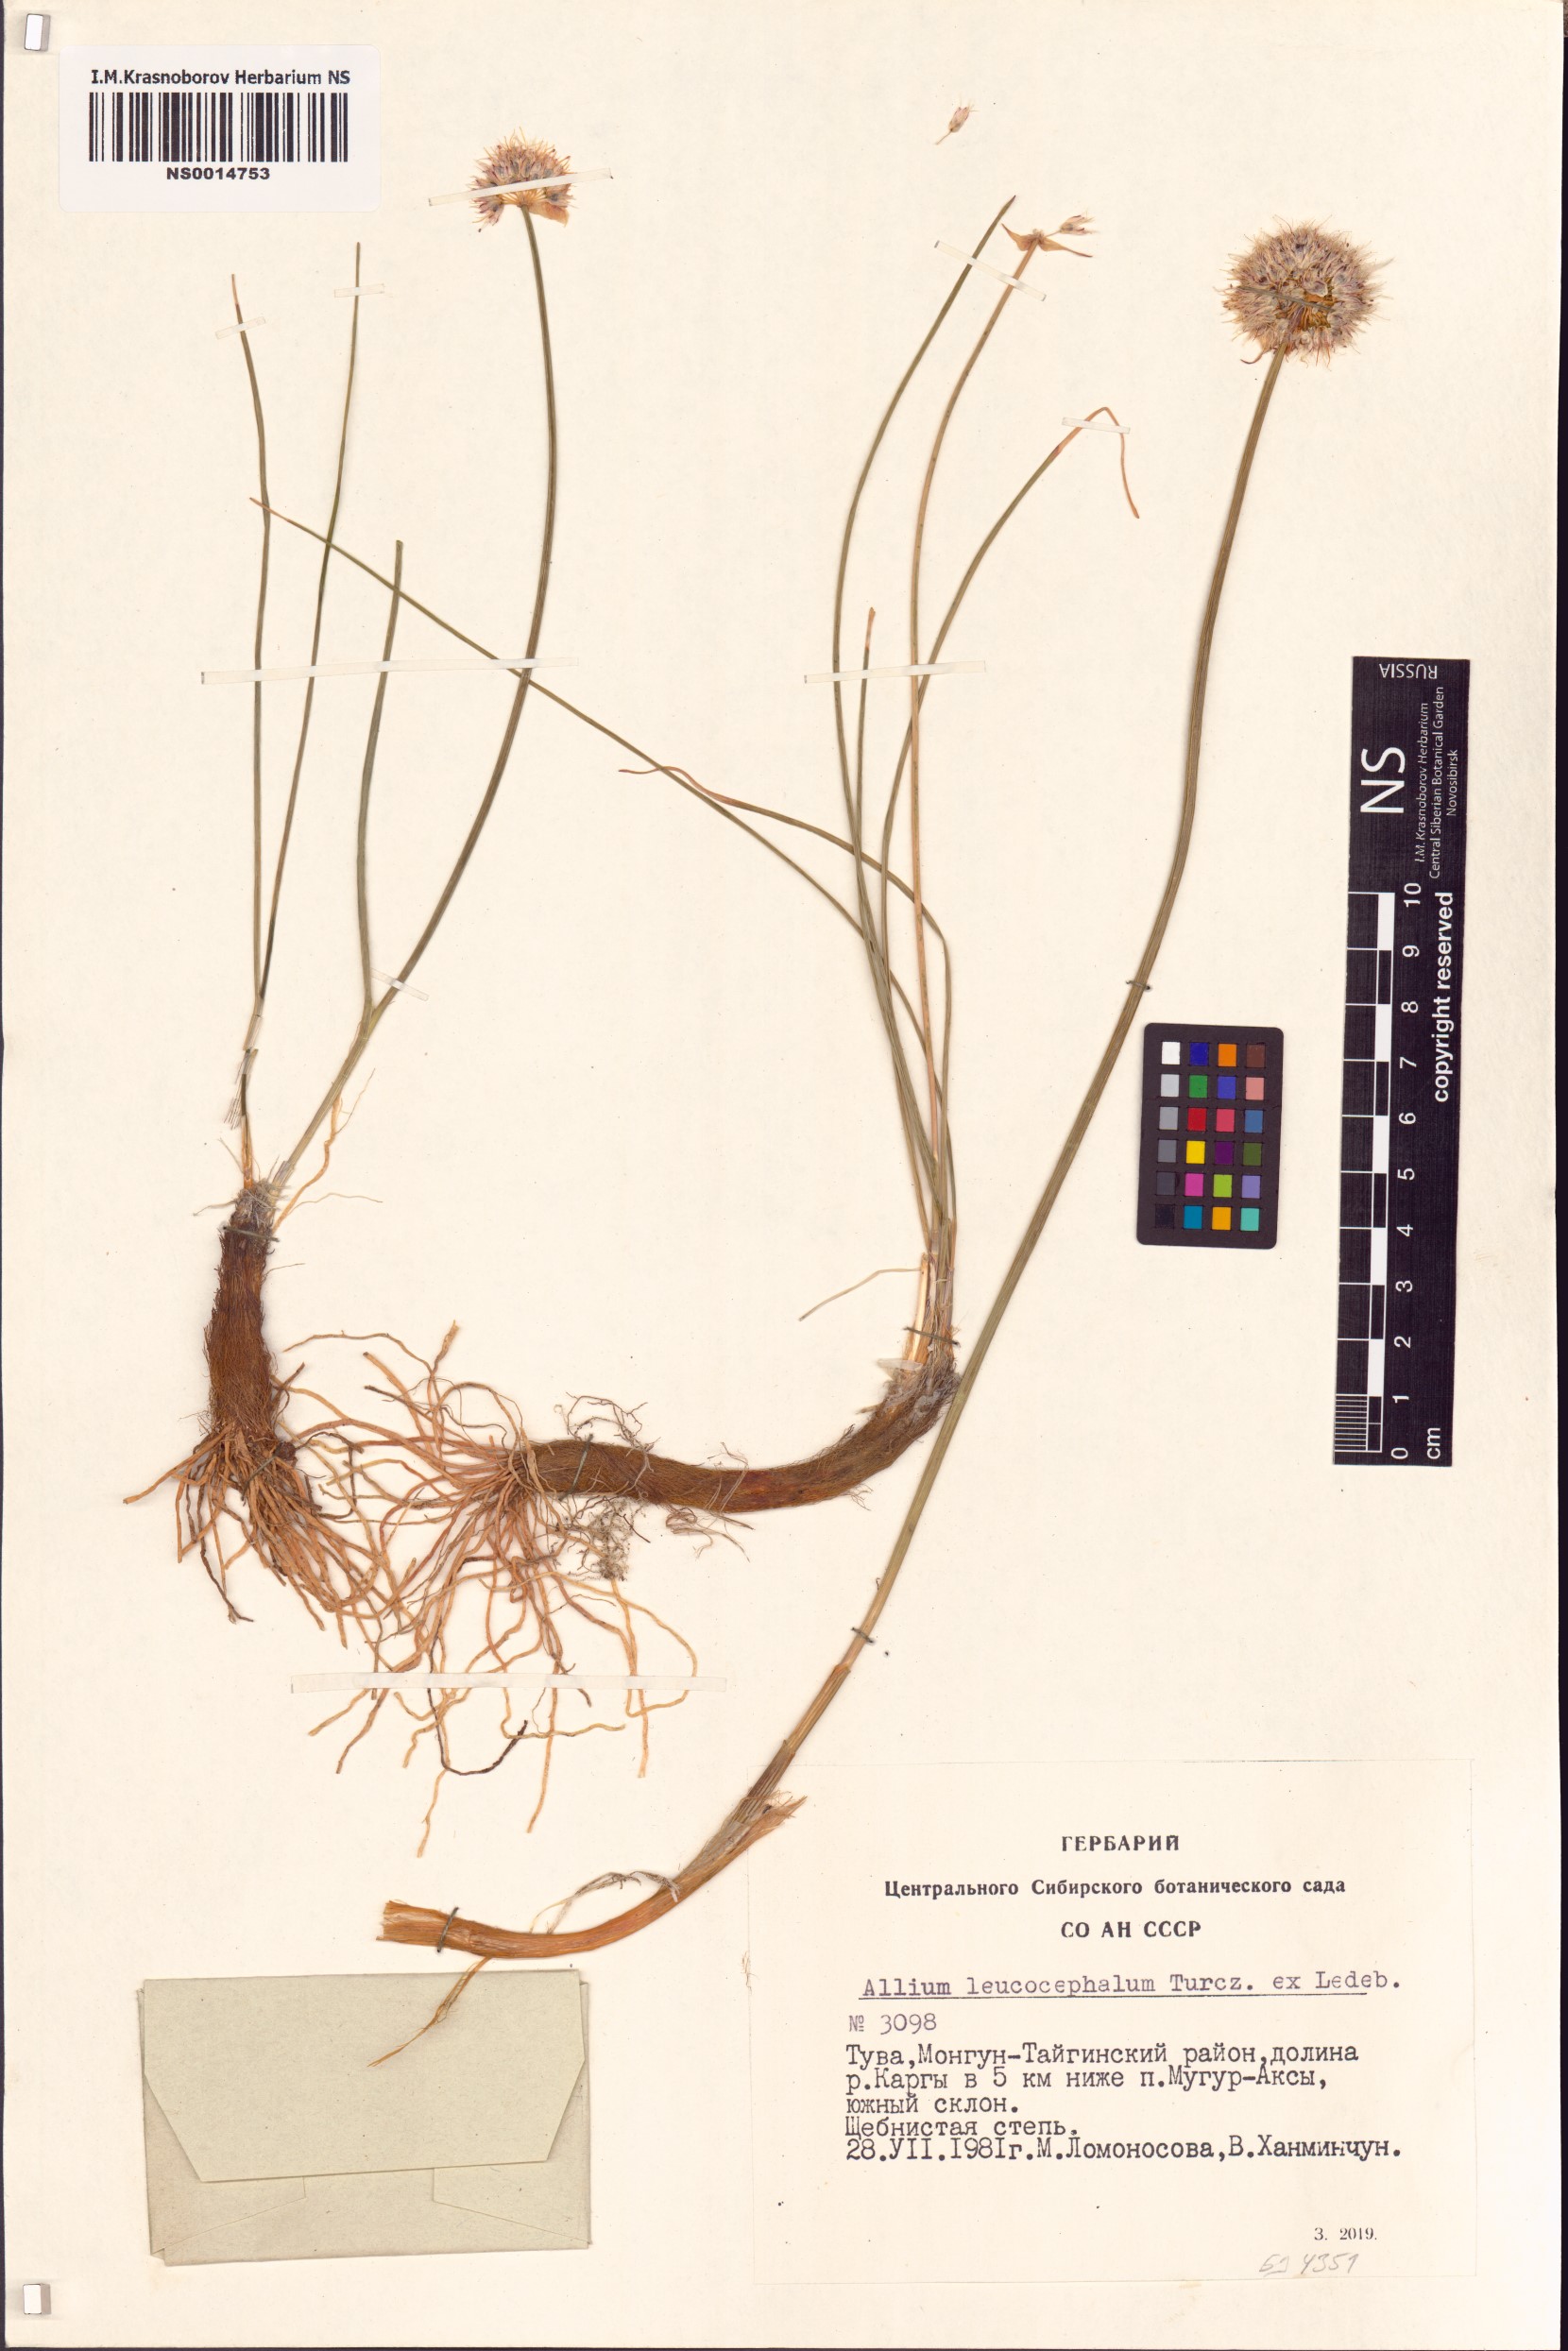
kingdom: Plantae
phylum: Tracheophyta
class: Liliopsida
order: Asparagales
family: Amaryllidaceae
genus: Allium
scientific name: Allium leucocephalum
